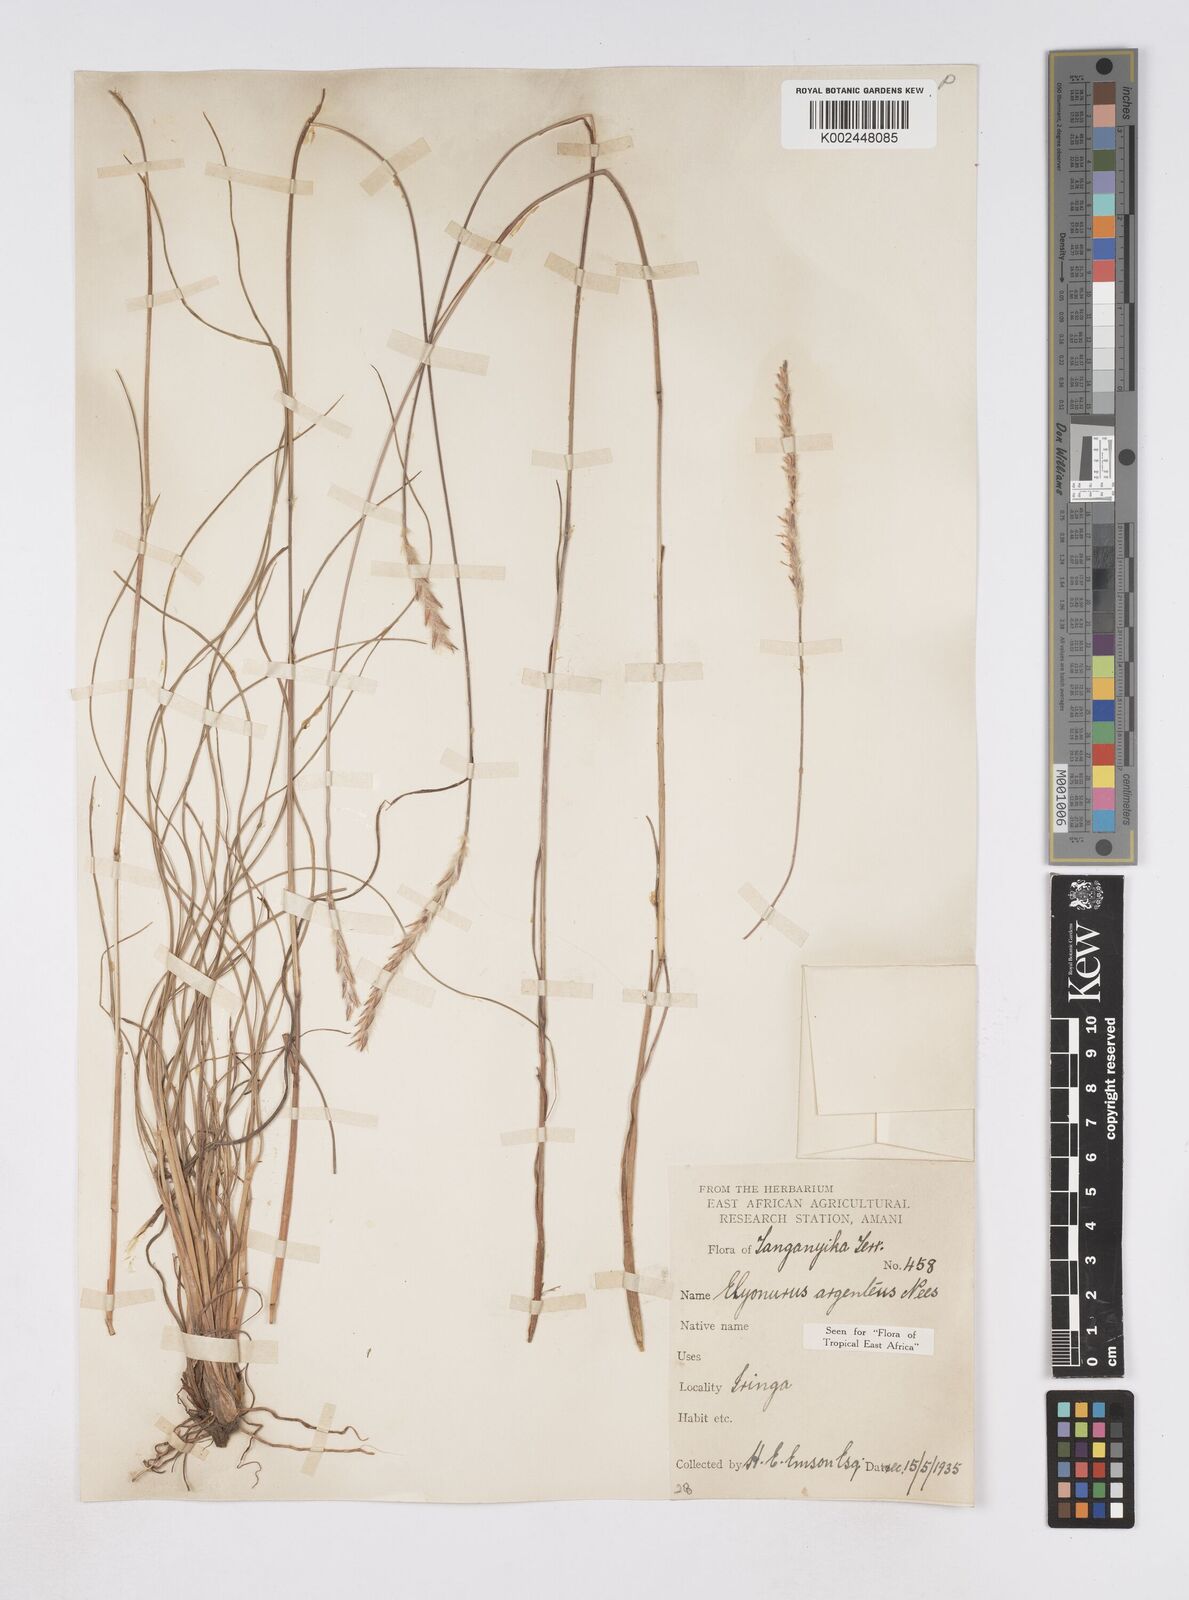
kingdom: Plantae
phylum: Tracheophyta
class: Liliopsida
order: Poales
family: Poaceae
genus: Elionurus
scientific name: Elionurus muticus
